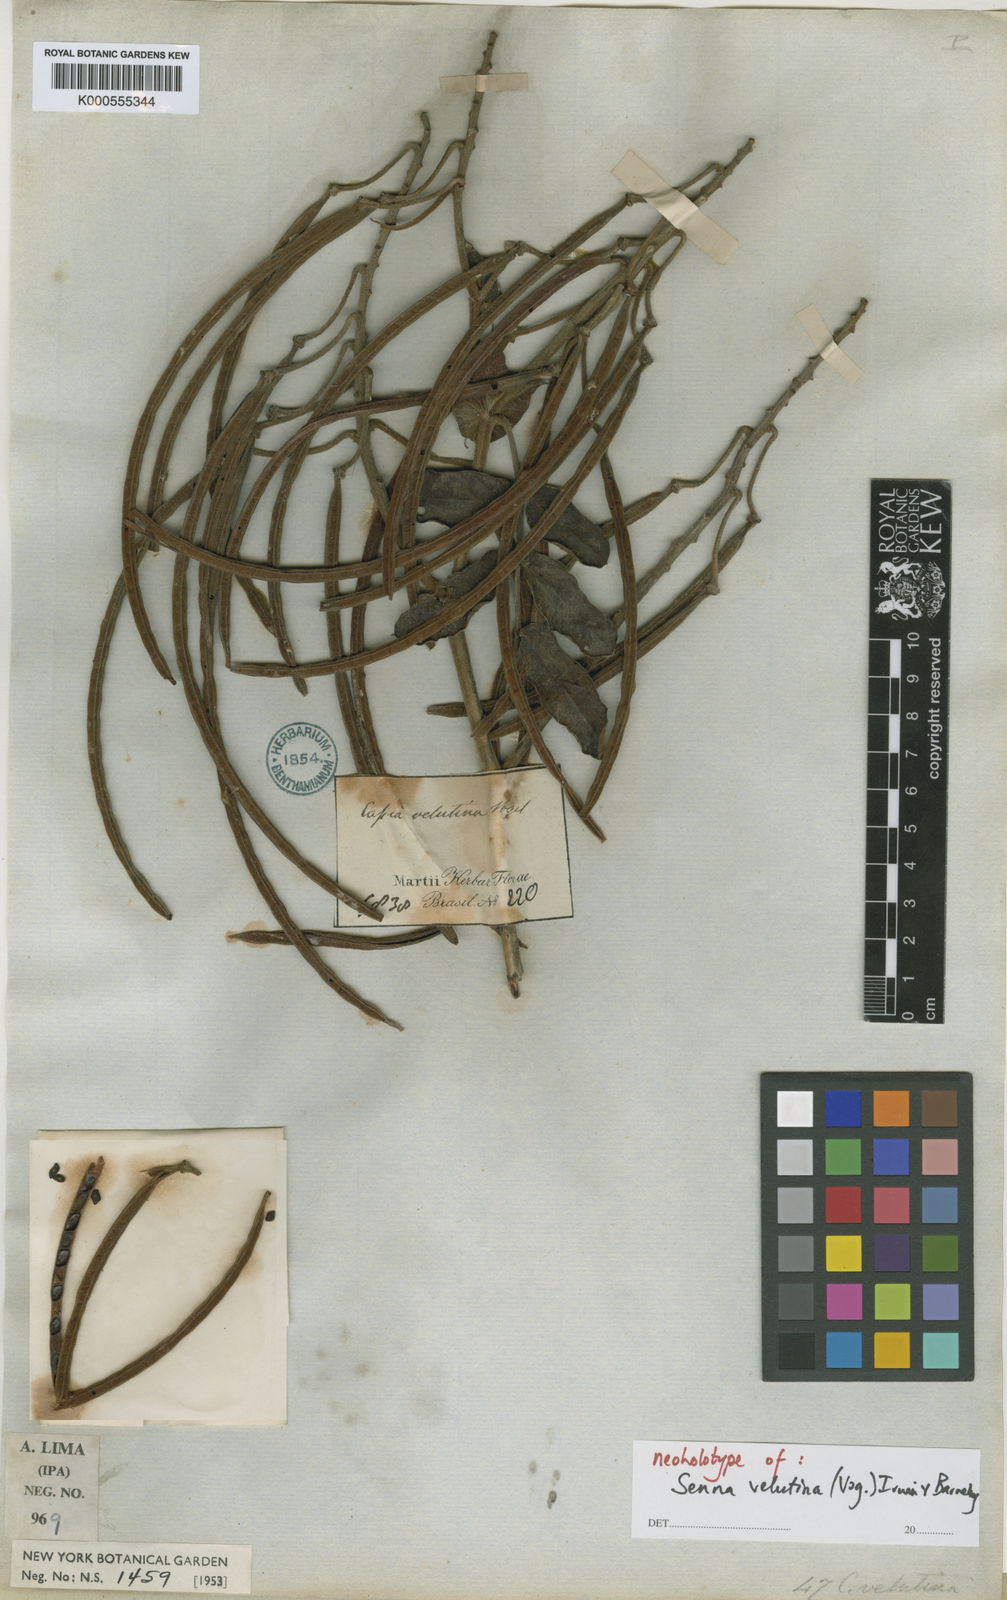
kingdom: Plantae
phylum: Tracheophyta
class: Magnoliopsida
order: Fabales
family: Fabaceae
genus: Senna
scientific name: Senna velutina
